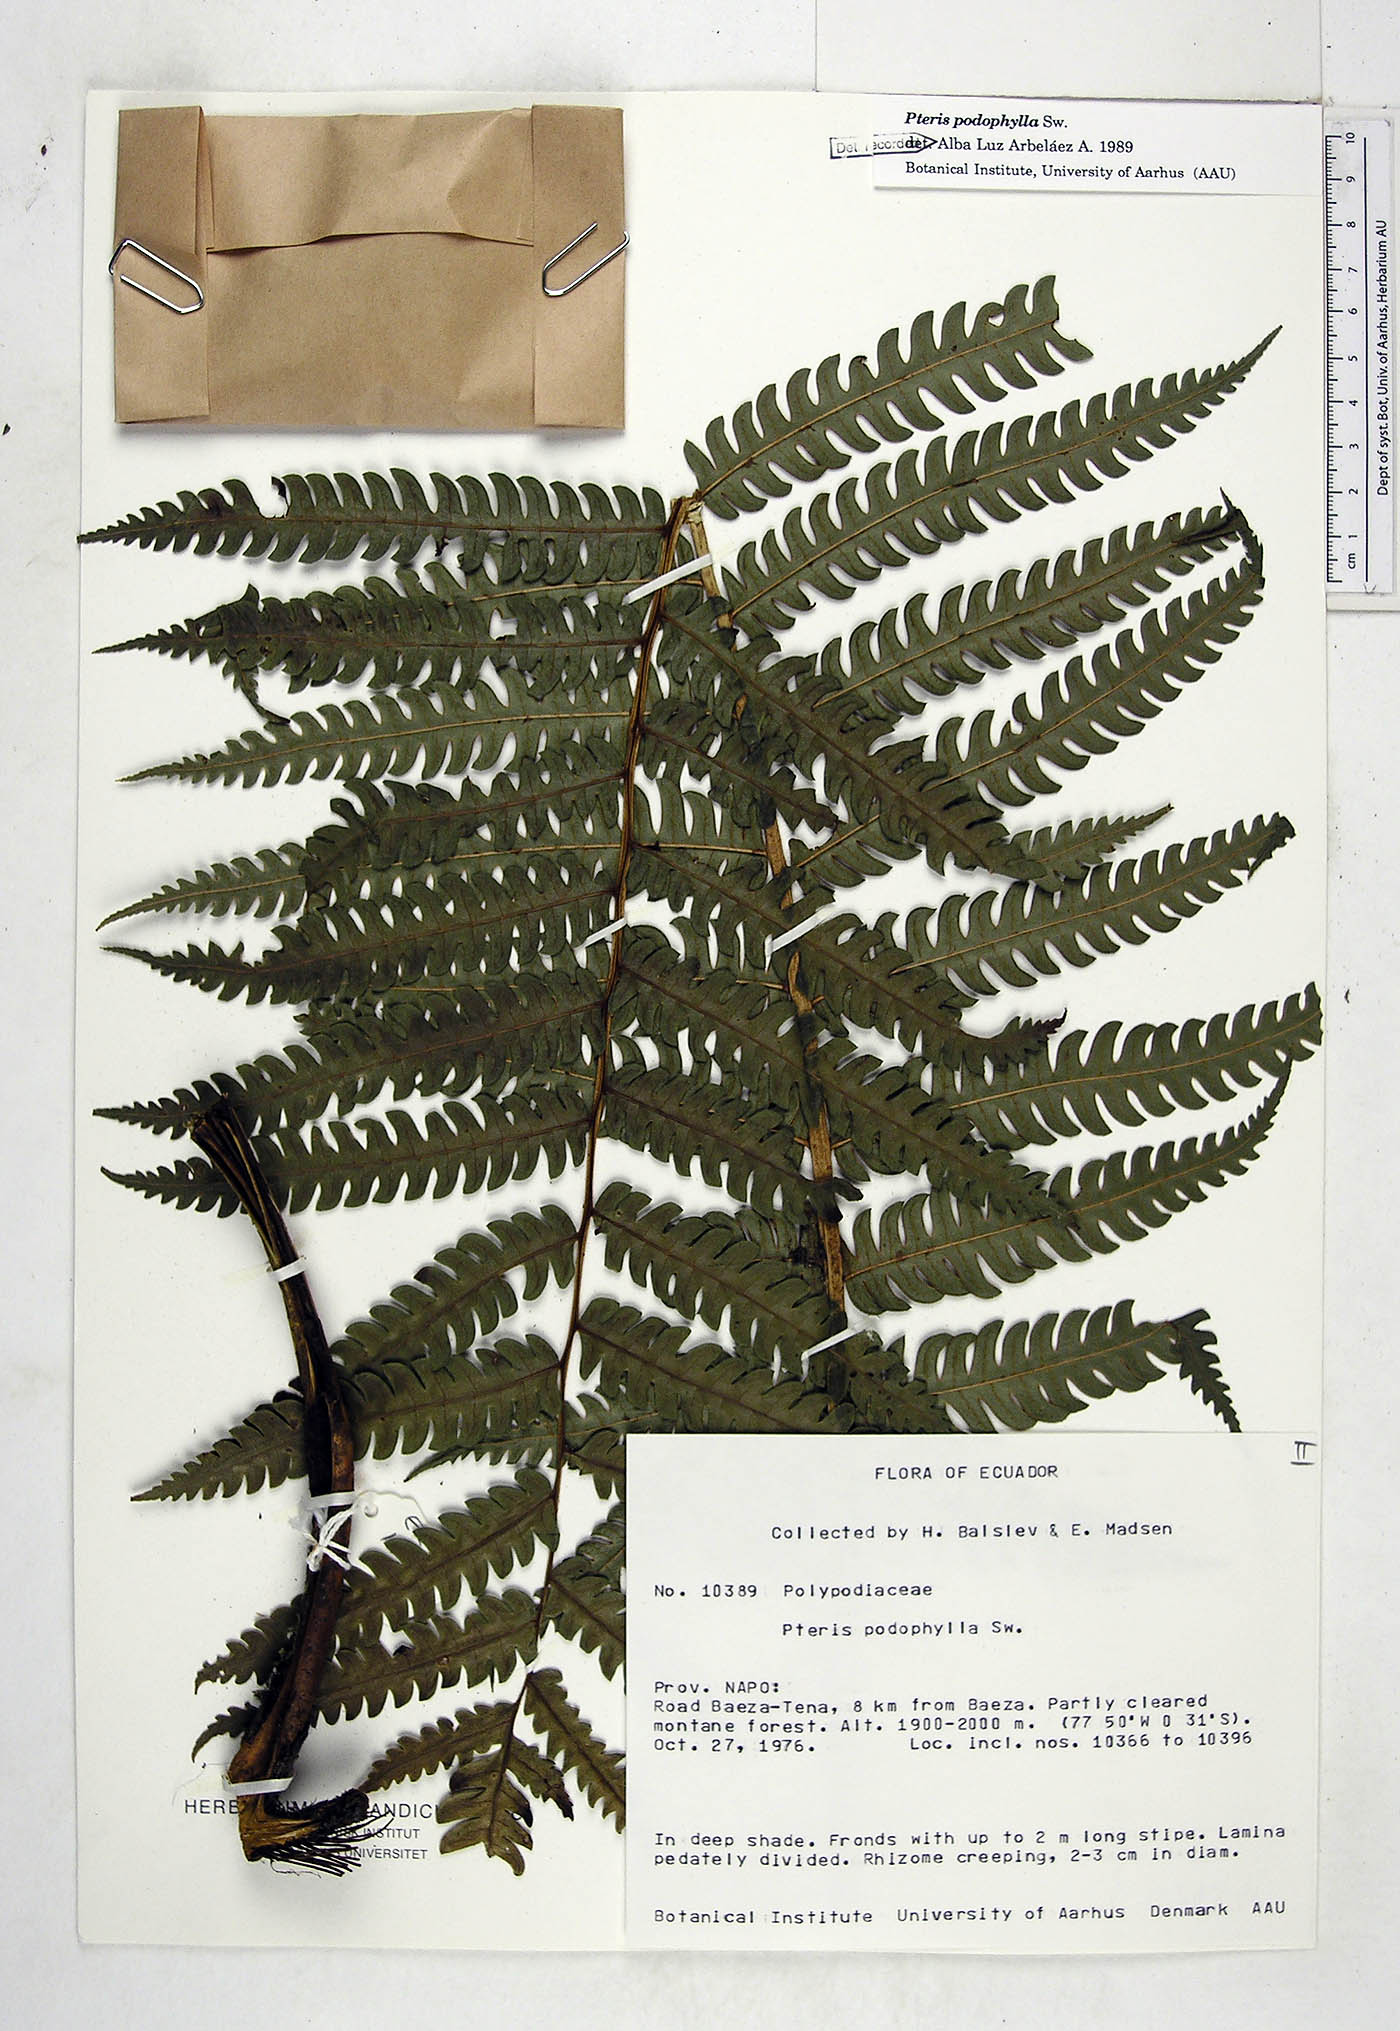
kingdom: Plantae
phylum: Tracheophyta
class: Polypodiopsida
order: Polypodiales
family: Pteridaceae
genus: Pteris
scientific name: Pteris podophylla
